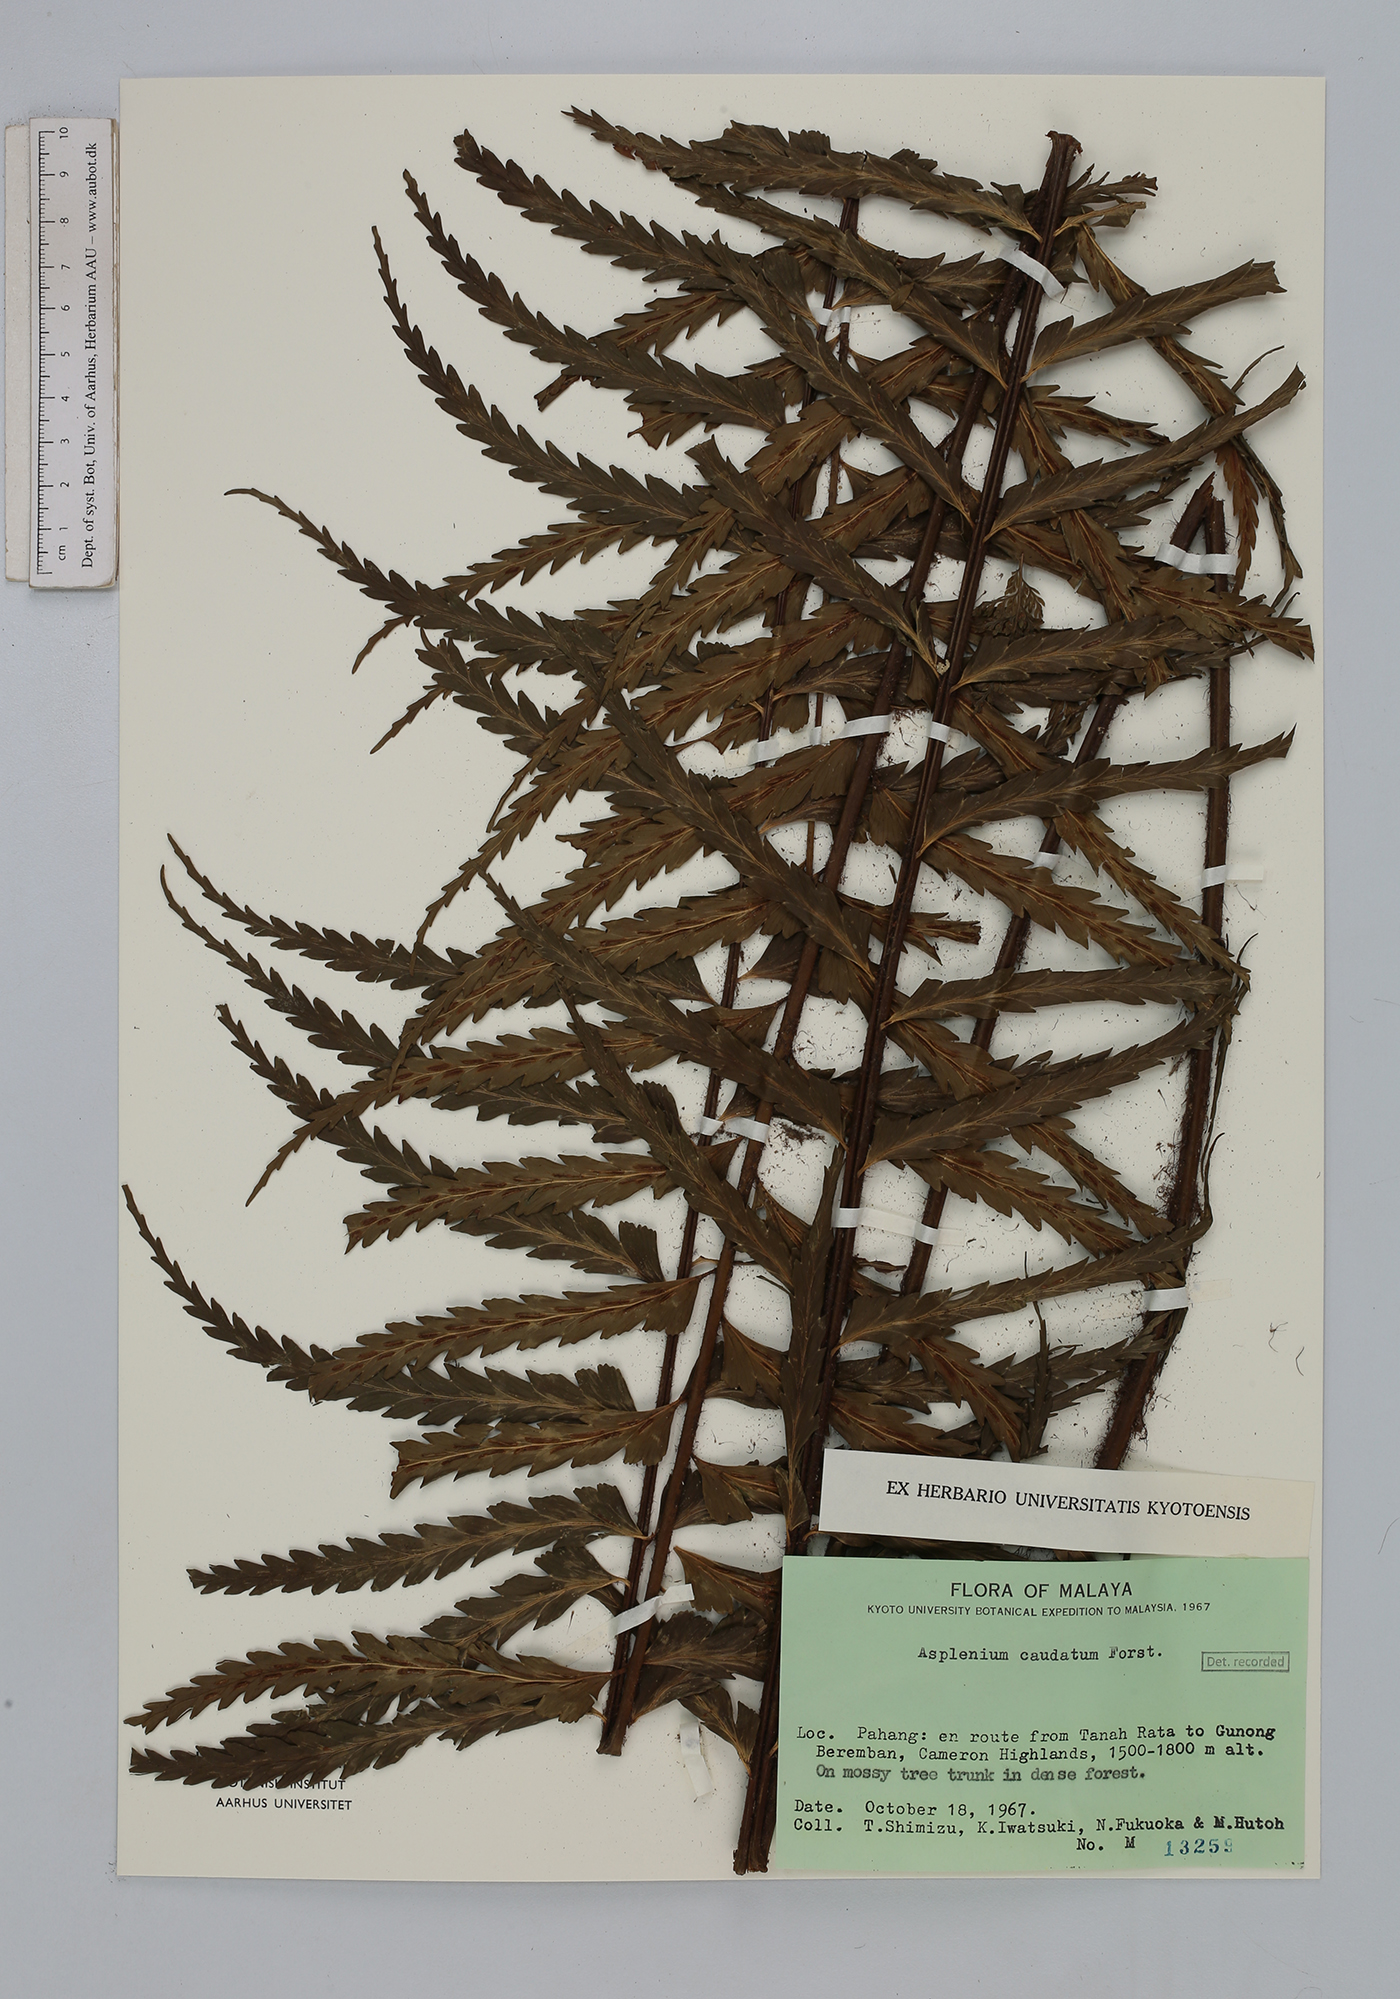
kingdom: Plantae
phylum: Tracheophyta
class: Polypodiopsida
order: Polypodiales
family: Aspleniaceae
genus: Asplenium
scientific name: Asplenium caudatum
